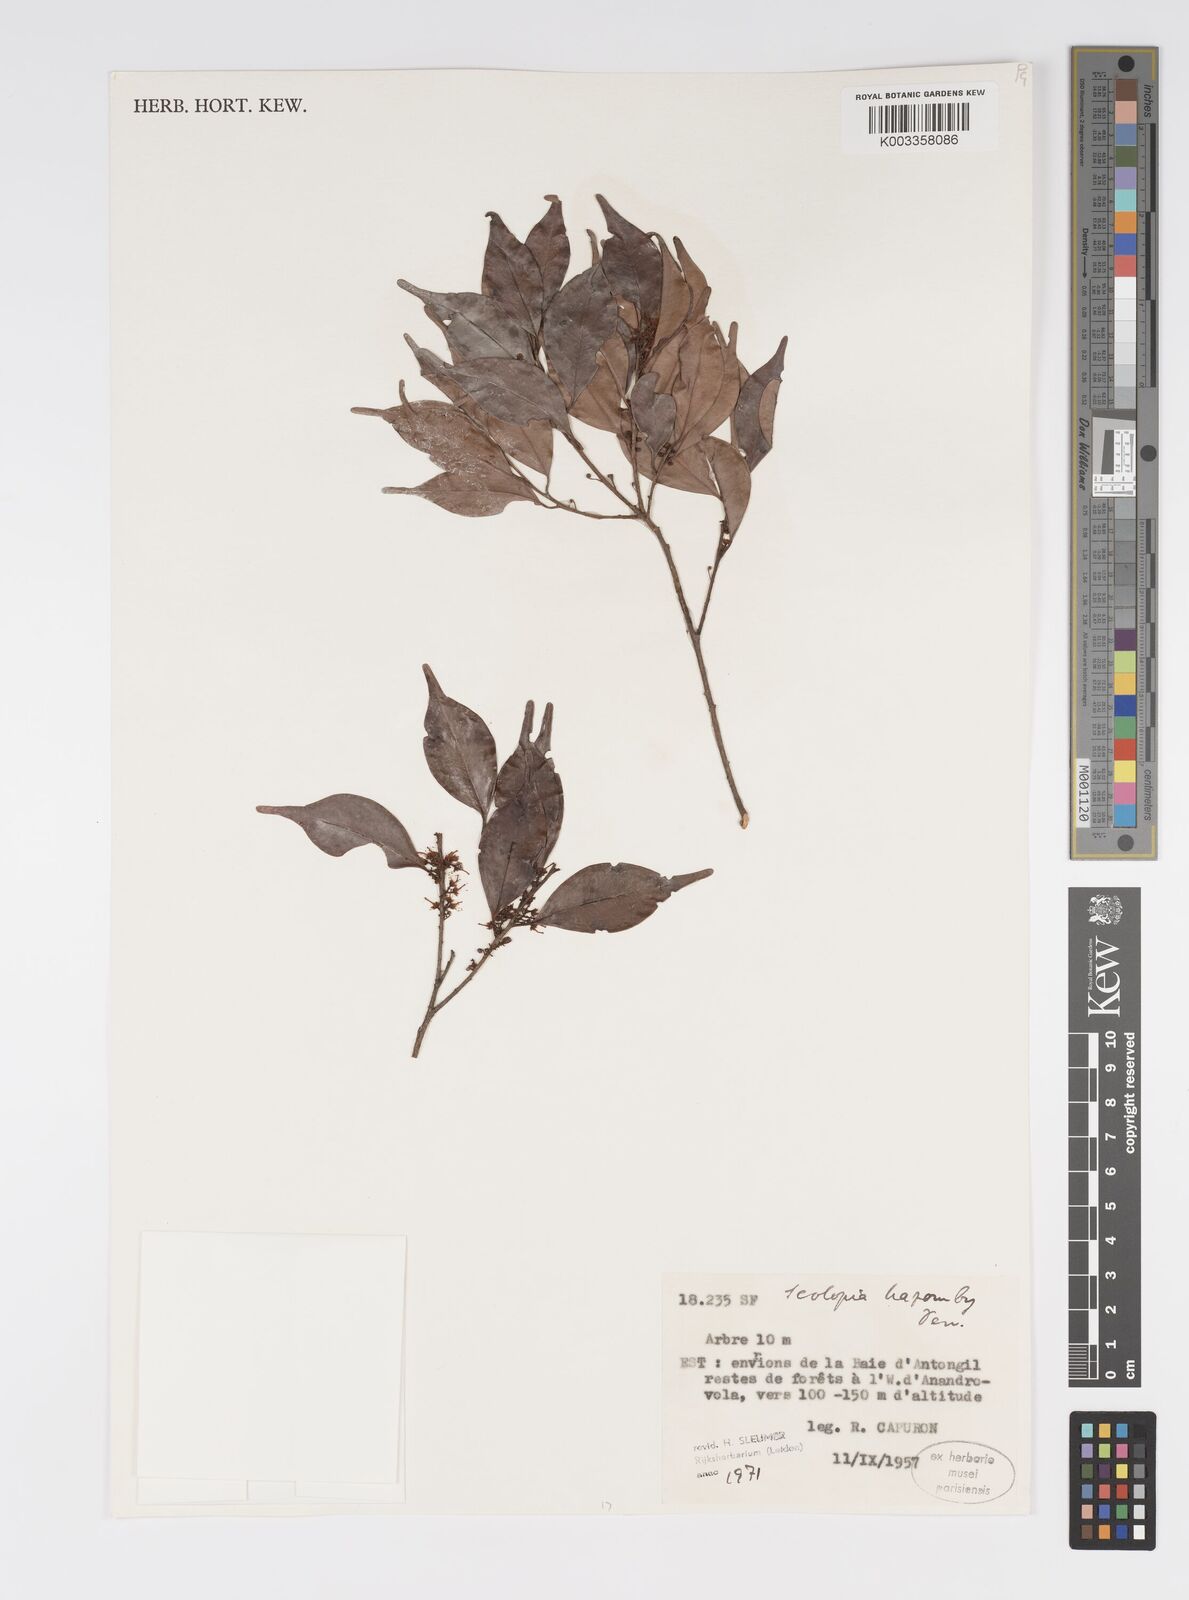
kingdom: Plantae
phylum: Tracheophyta
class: Magnoliopsida
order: Malpighiales
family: Salicaceae
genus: Scolopia
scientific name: Scolopia hazomby
